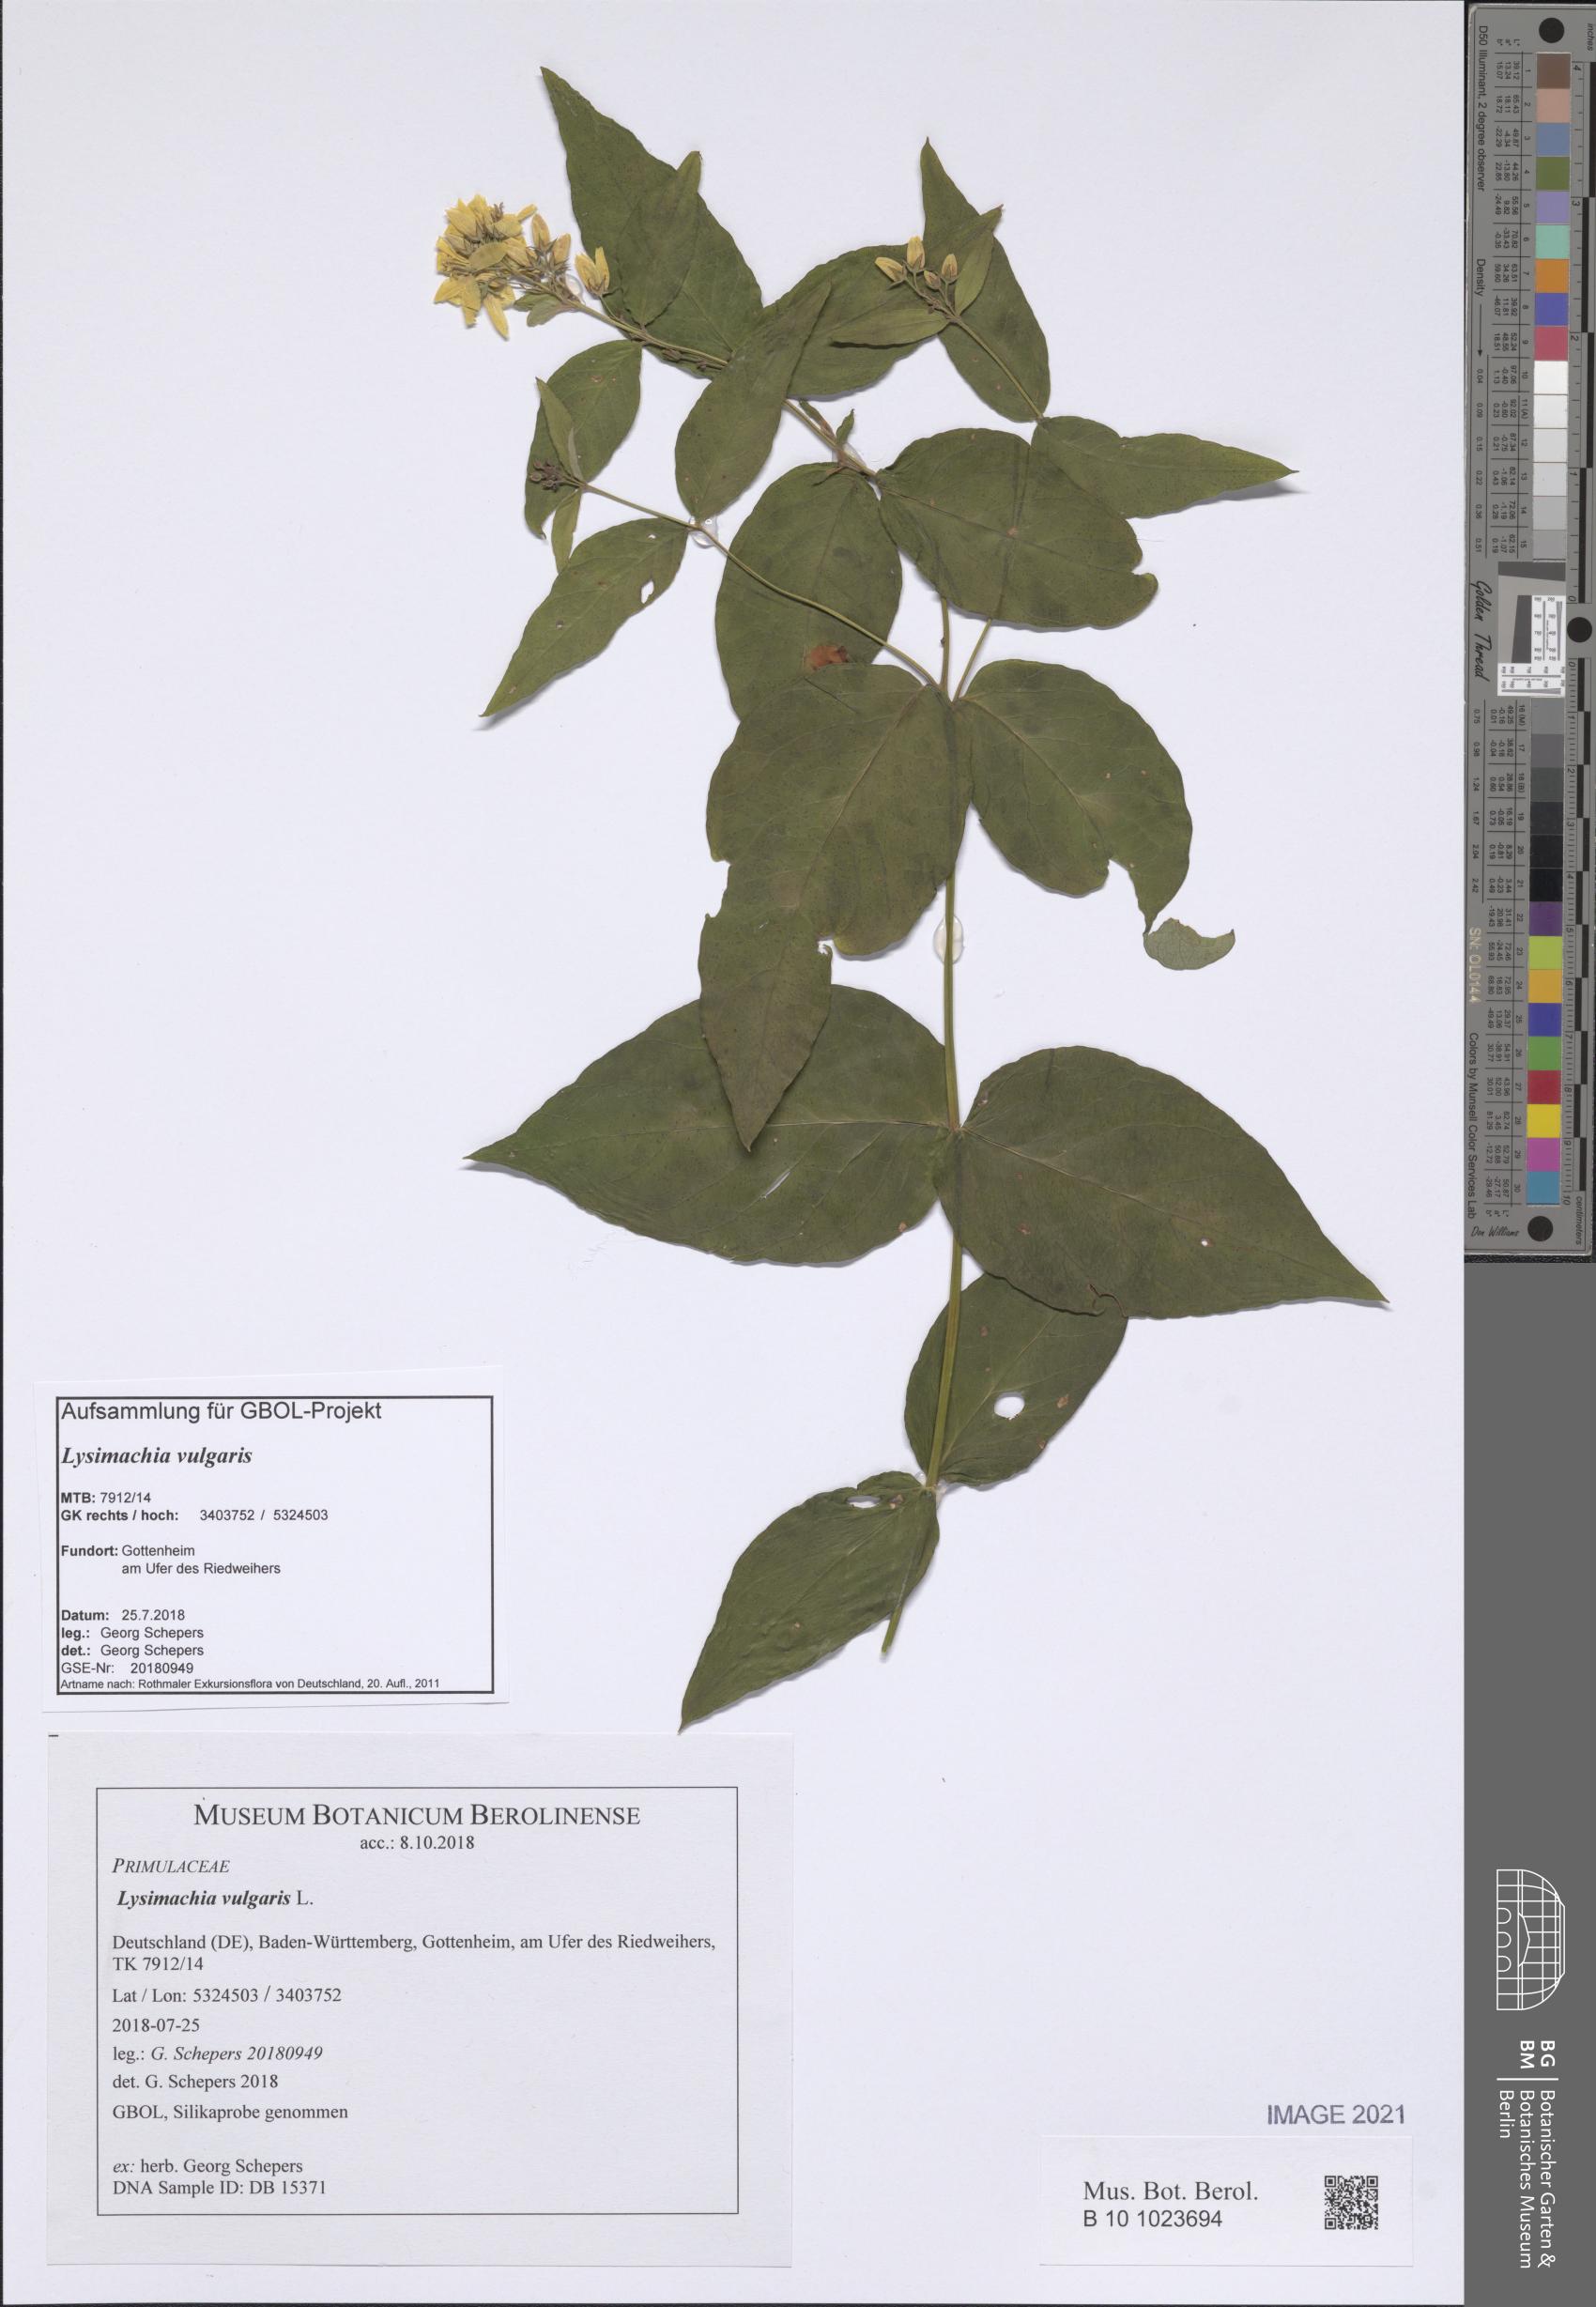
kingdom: Plantae
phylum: Tracheophyta
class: Magnoliopsida
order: Ericales
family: Primulaceae
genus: Lysimachia
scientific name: Lysimachia vulgaris
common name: Yellow loosestrife
